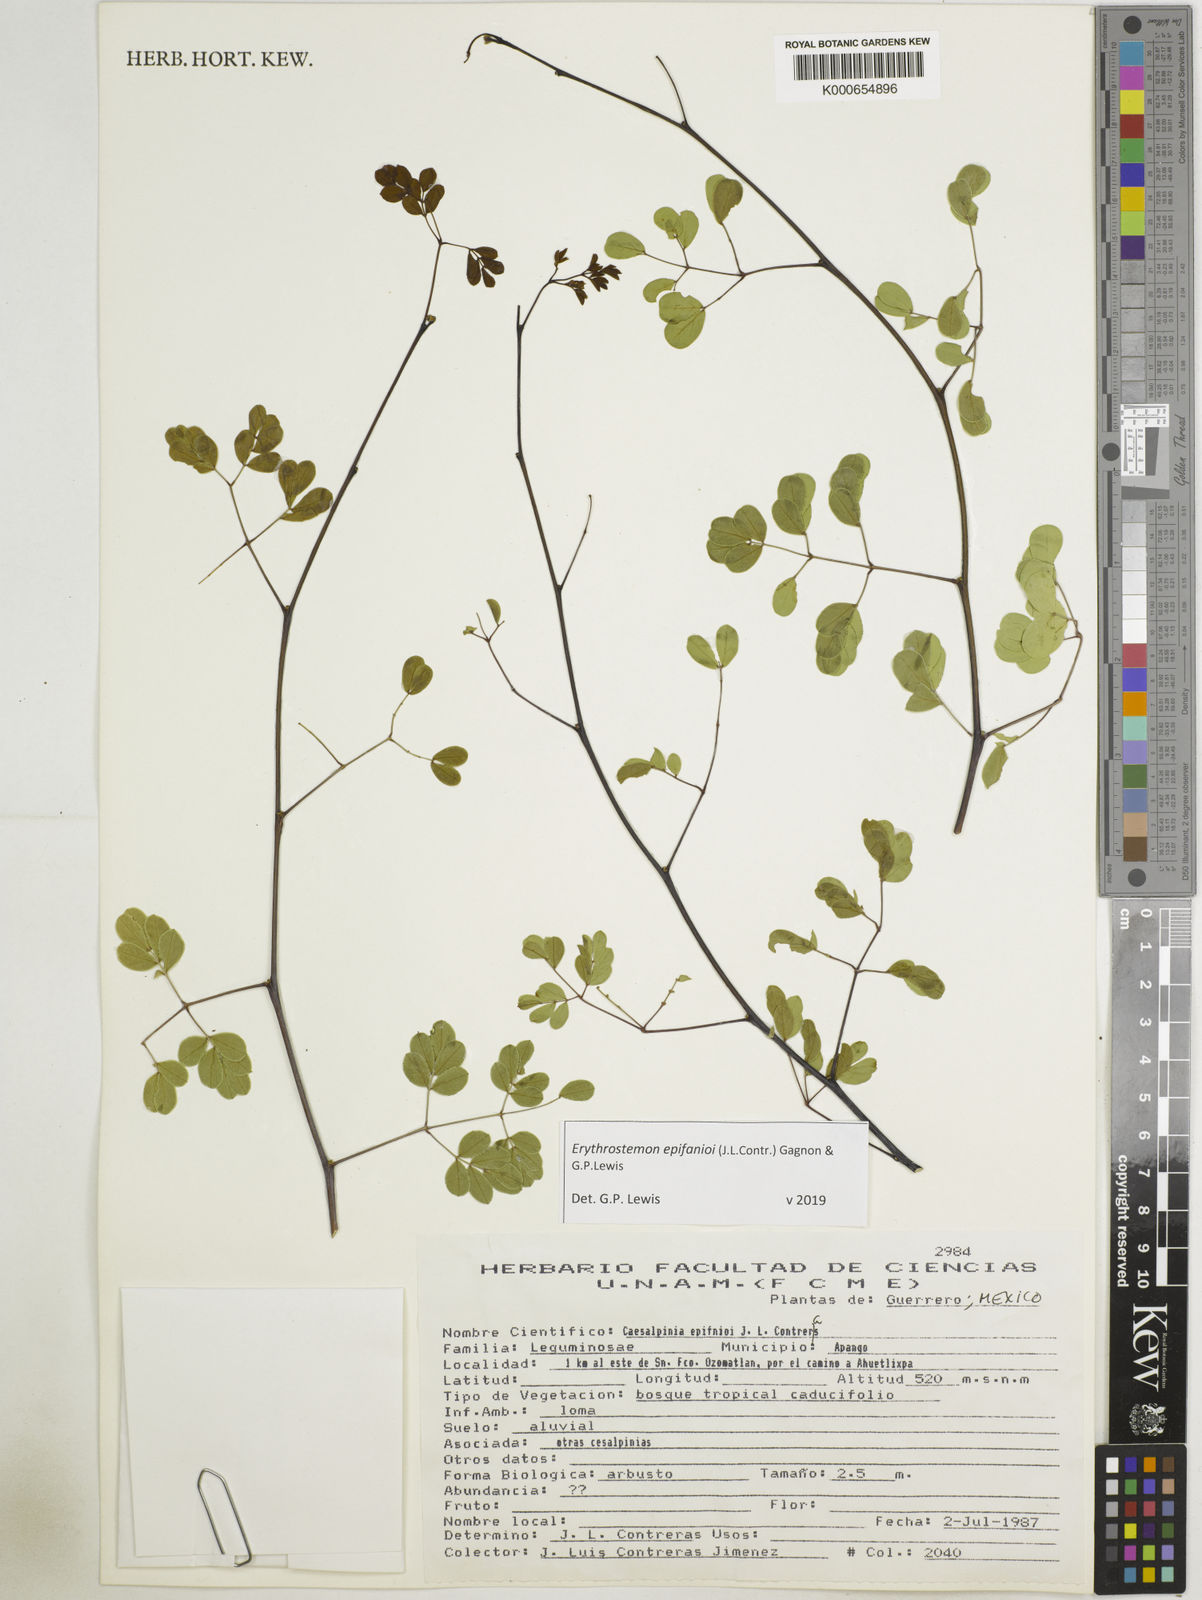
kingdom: Plantae
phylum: Tracheophyta
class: Magnoliopsida
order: Fabales
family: Fabaceae
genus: Erythrostemon
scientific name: Erythrostemon epifanioi
